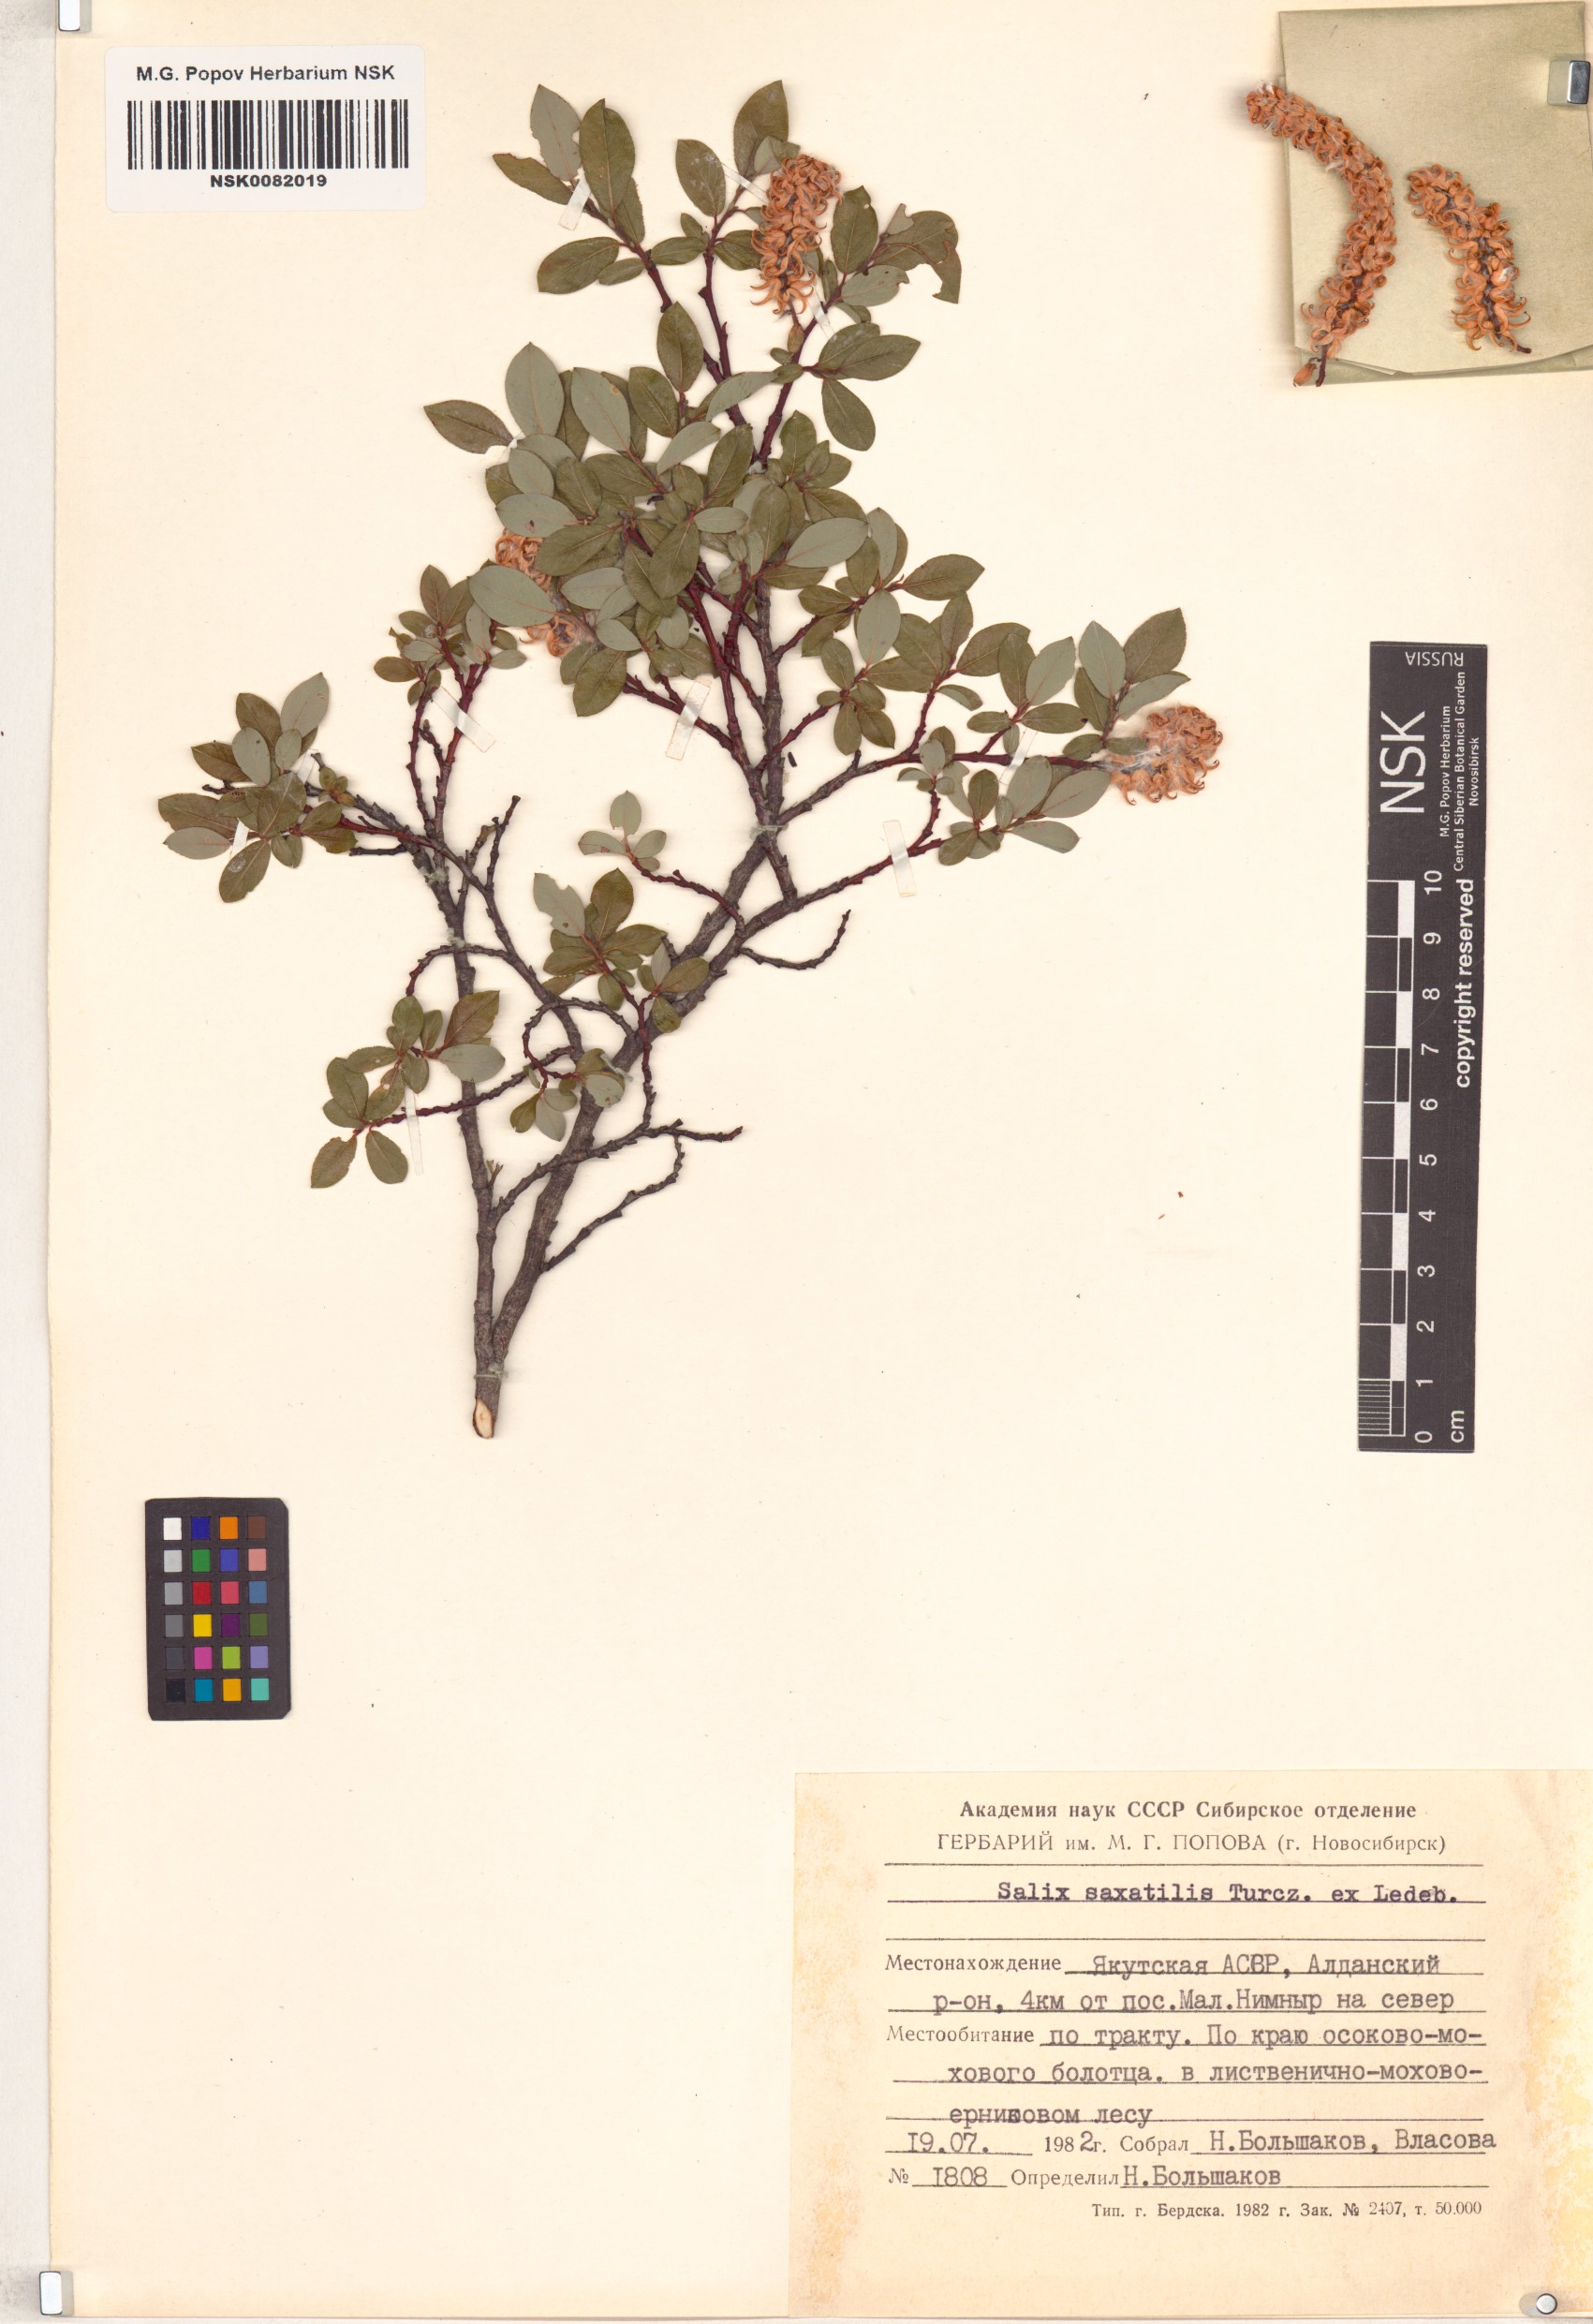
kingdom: Plantae
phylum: Tracheophyta
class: Magnoliopsida
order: Malpighiales
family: Salicaceae
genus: Salix
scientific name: Salix saxatilis
